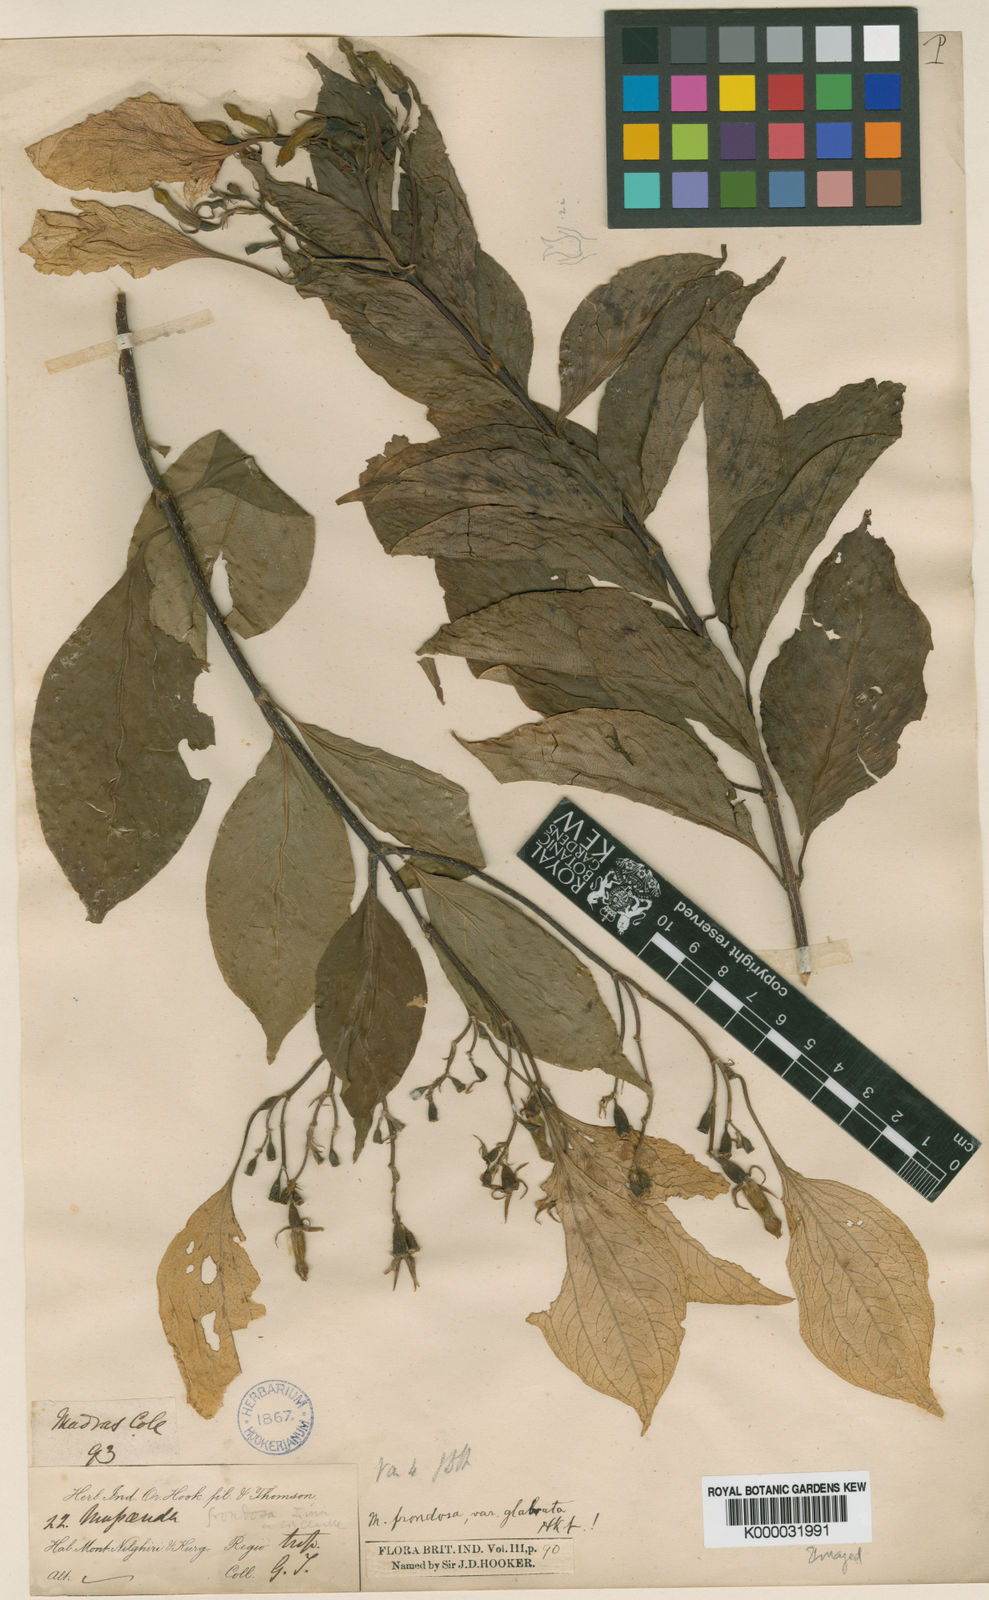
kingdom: Plantae
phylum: Tracheophyta
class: Magnoliopsida
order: Gentianales
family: Rubiaceae
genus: Mussaenda
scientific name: Mussaenda glabrata
